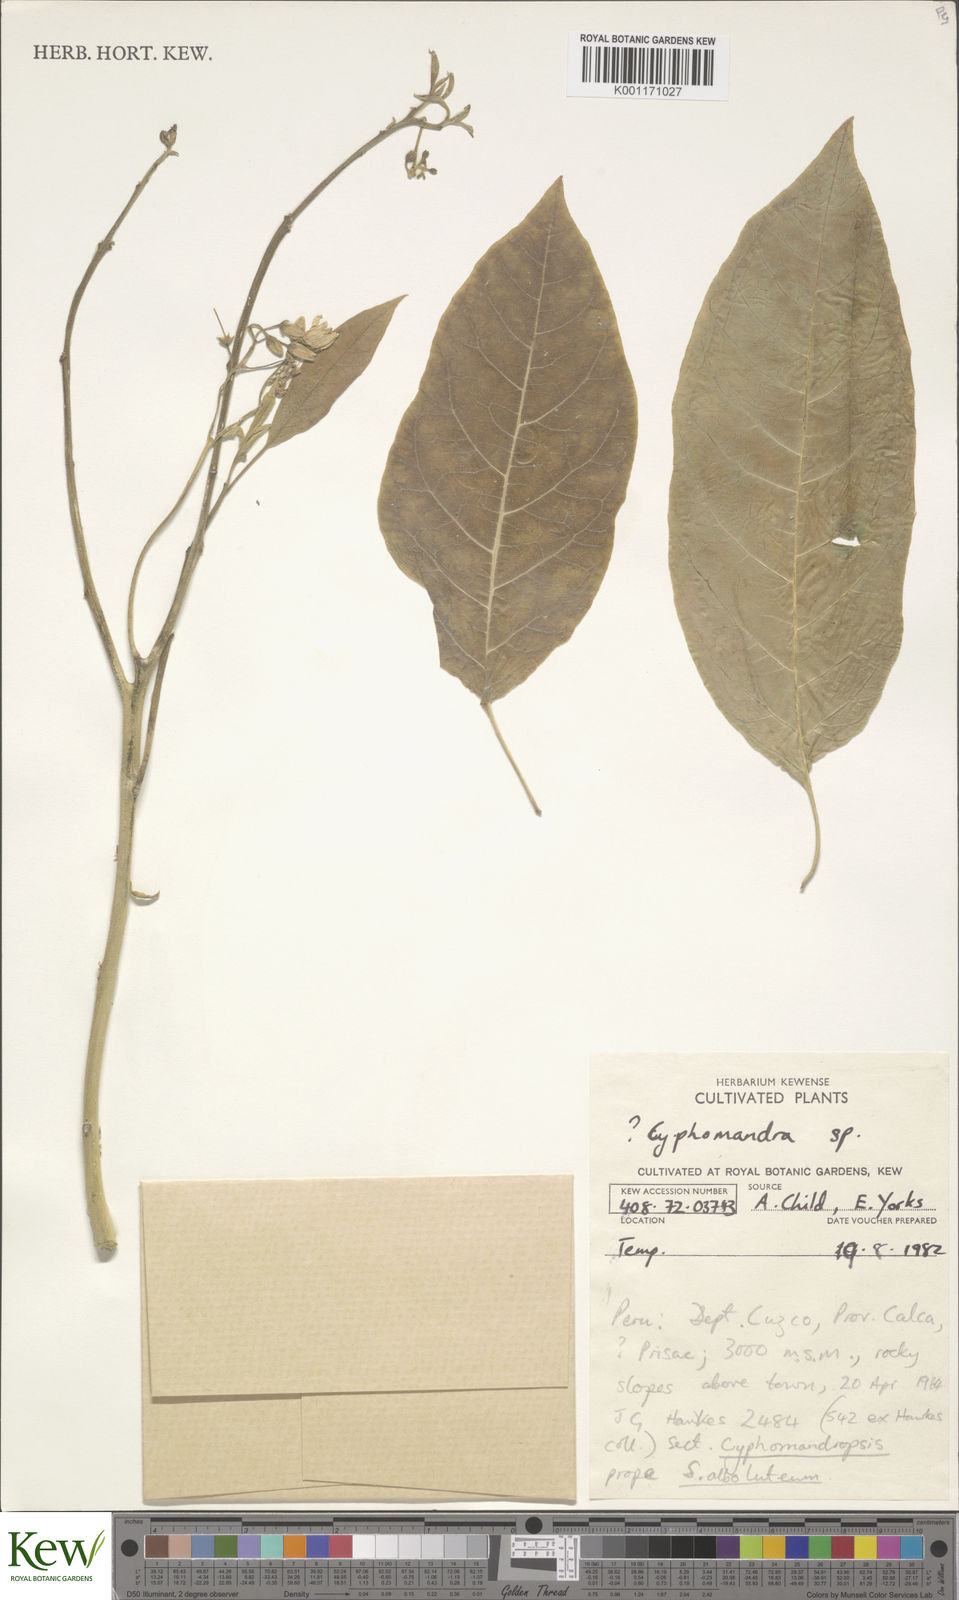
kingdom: Plantae
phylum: Tracheophyta
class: Magnoliopsida
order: Solanales
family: Solanaceae
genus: Solanum
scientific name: Solanum
